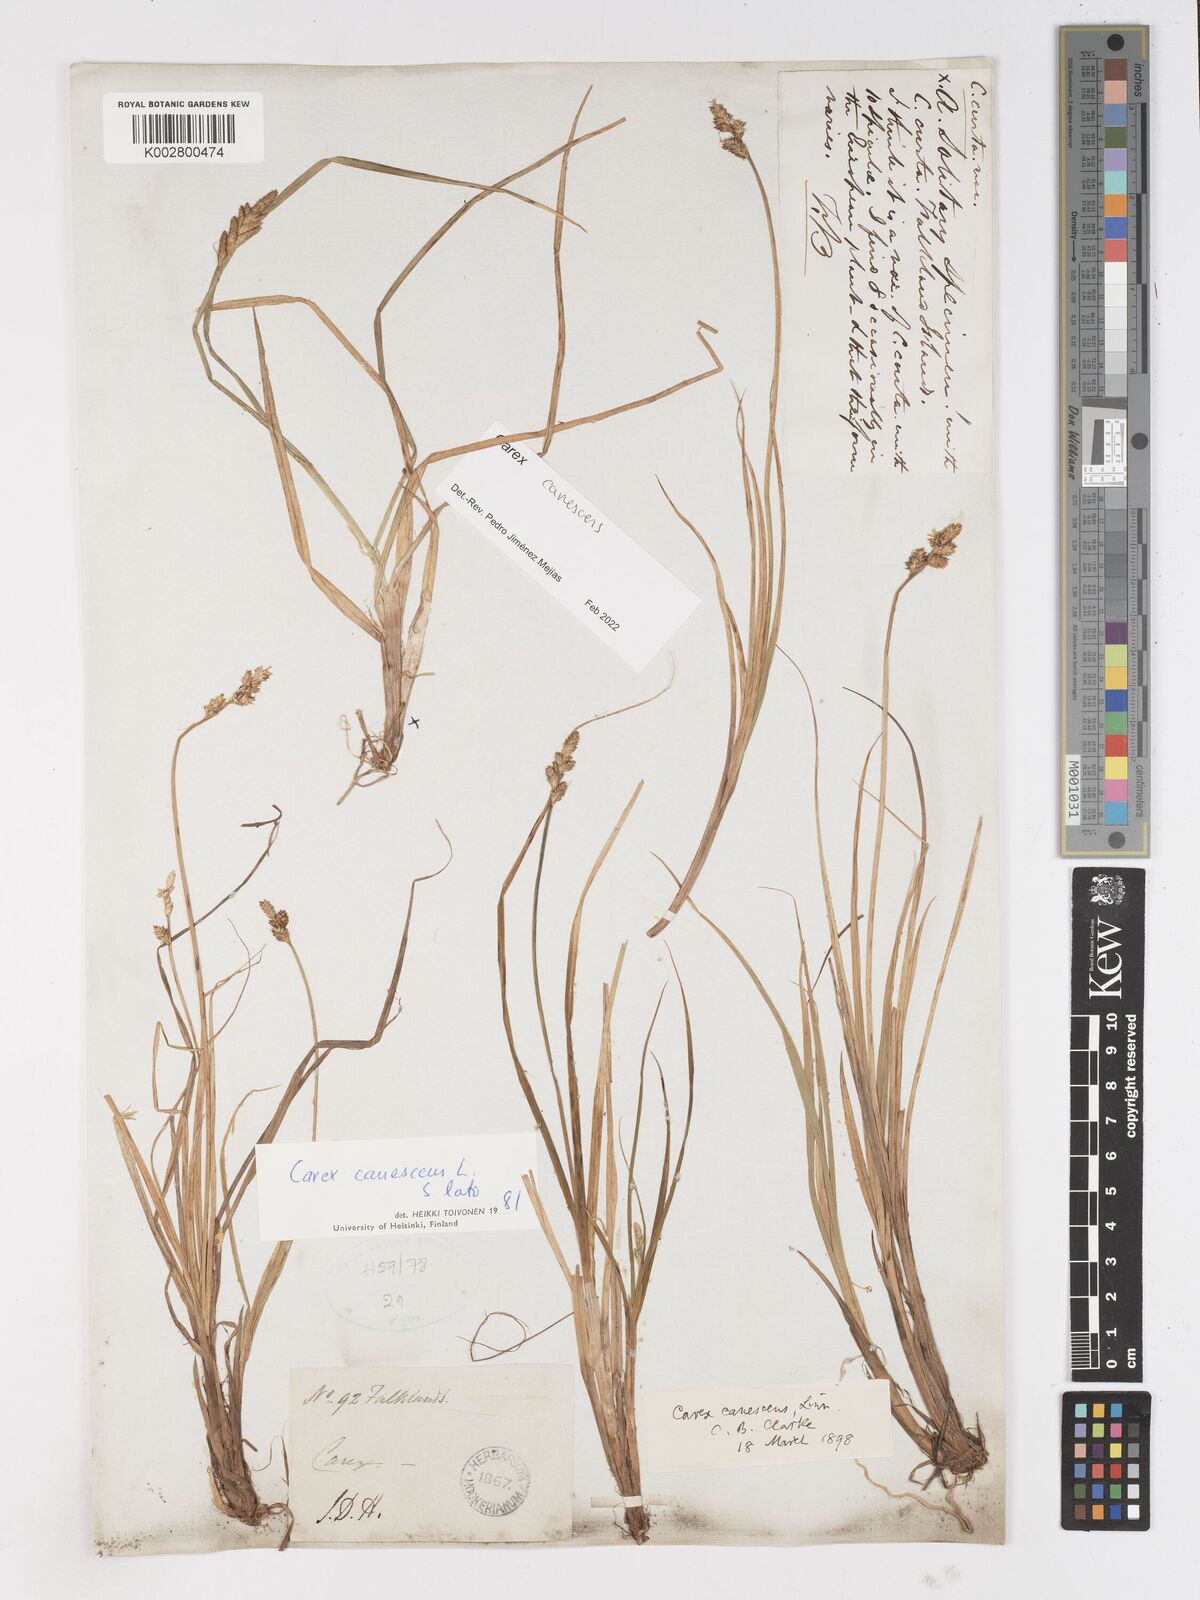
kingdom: Plantae
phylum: Tracheophyta
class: Liliopsida
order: Poales
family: Cyperaceae
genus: Carex
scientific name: Carex curta
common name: White sedge
